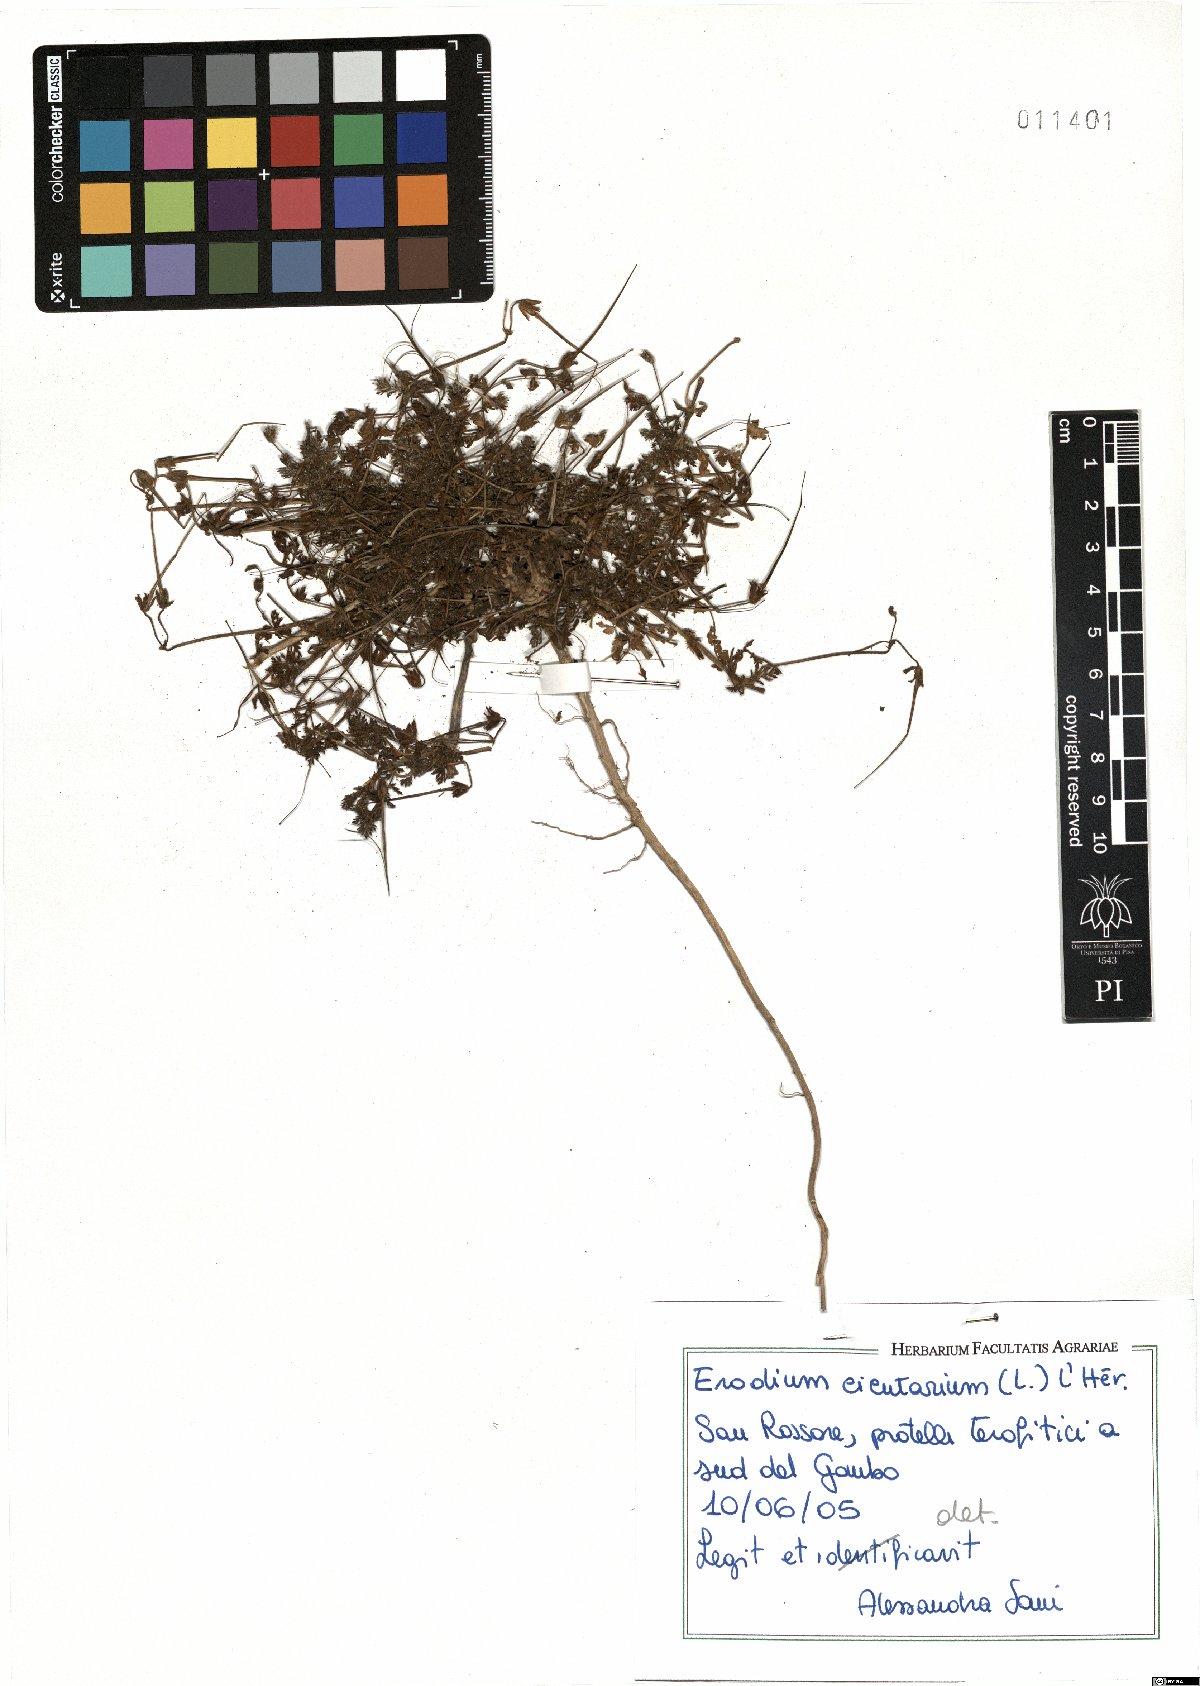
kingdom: Plantae
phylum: Tracheophyta
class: Magnoliopsida
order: Geraniales
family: Geraniaceae
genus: Erodium
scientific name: Erodium cicutarium
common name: Common stork's-bill
